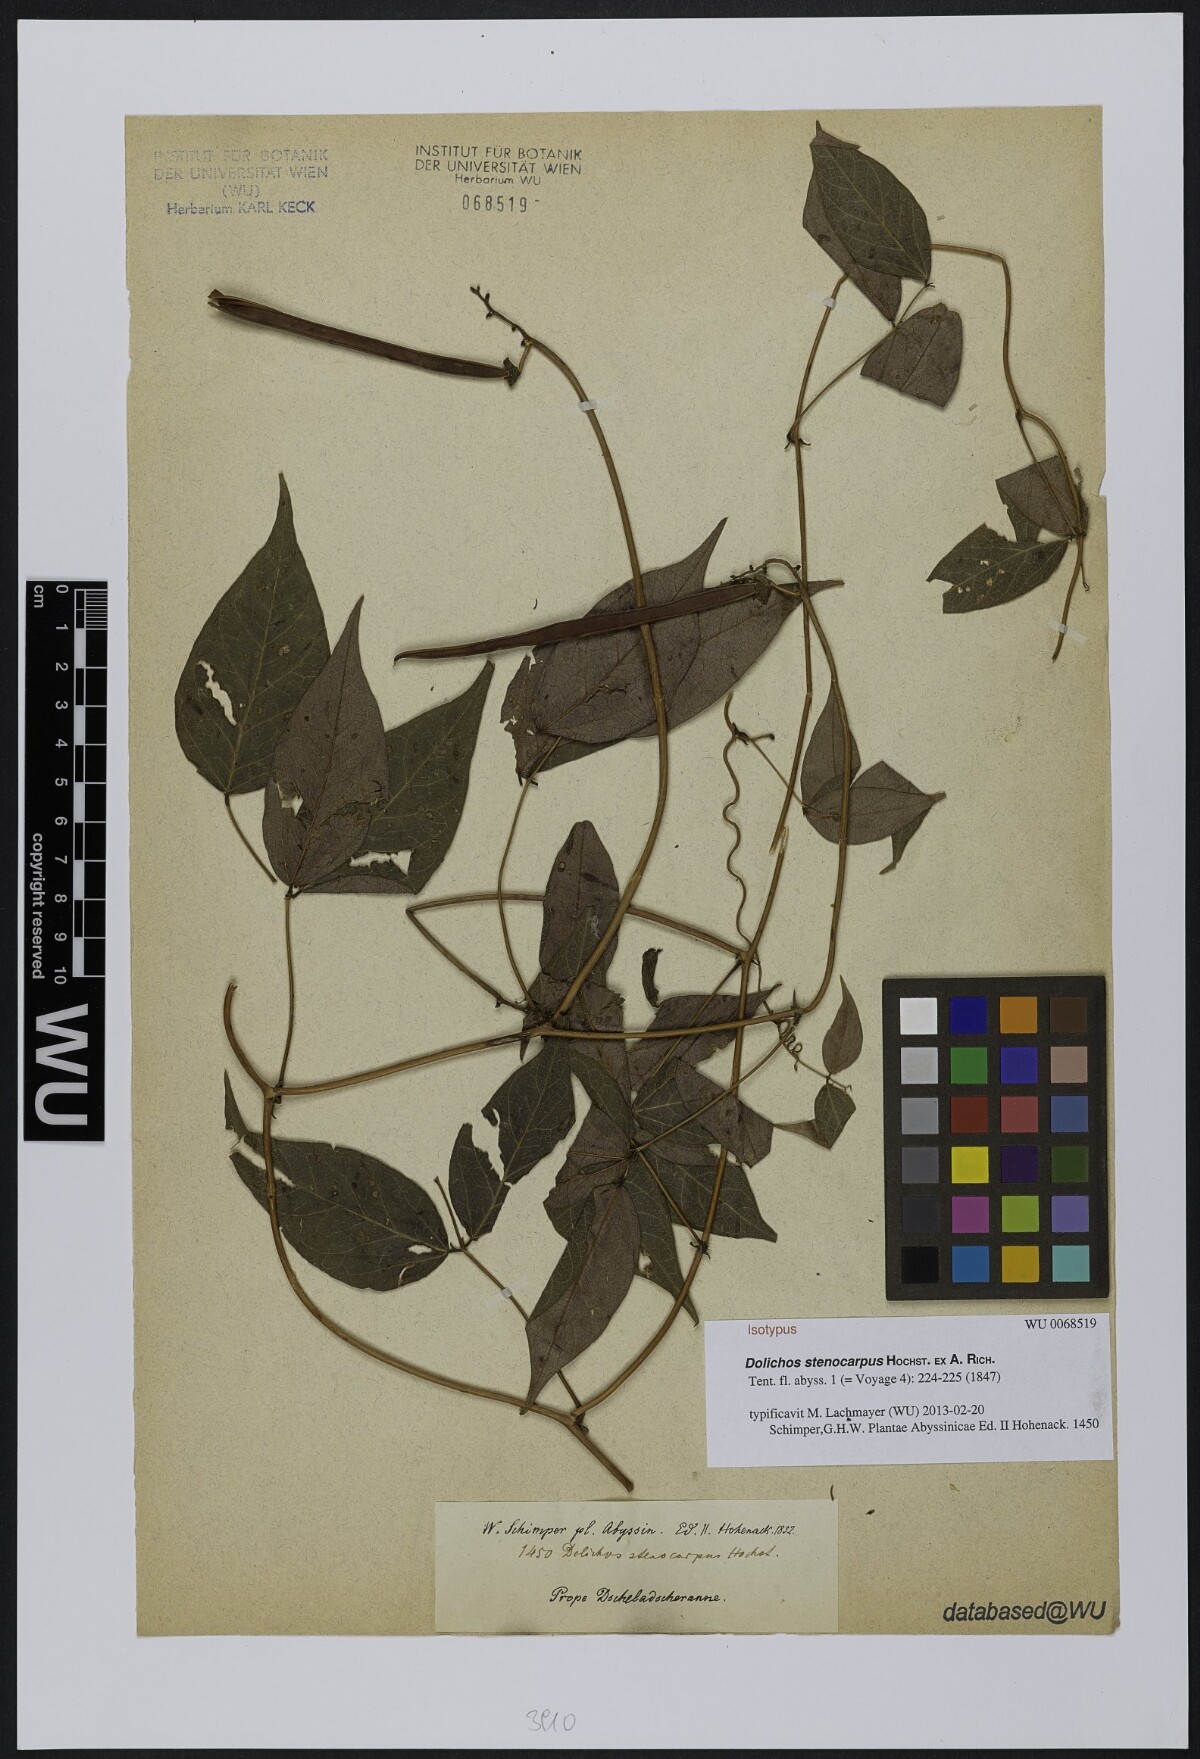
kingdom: Plantae
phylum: Tracheophyta
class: Magnoliopsida
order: Fabales
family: Fabaceae
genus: Sphenostylis
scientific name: Sphenostylis stenocarpa
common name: Yam-pea
